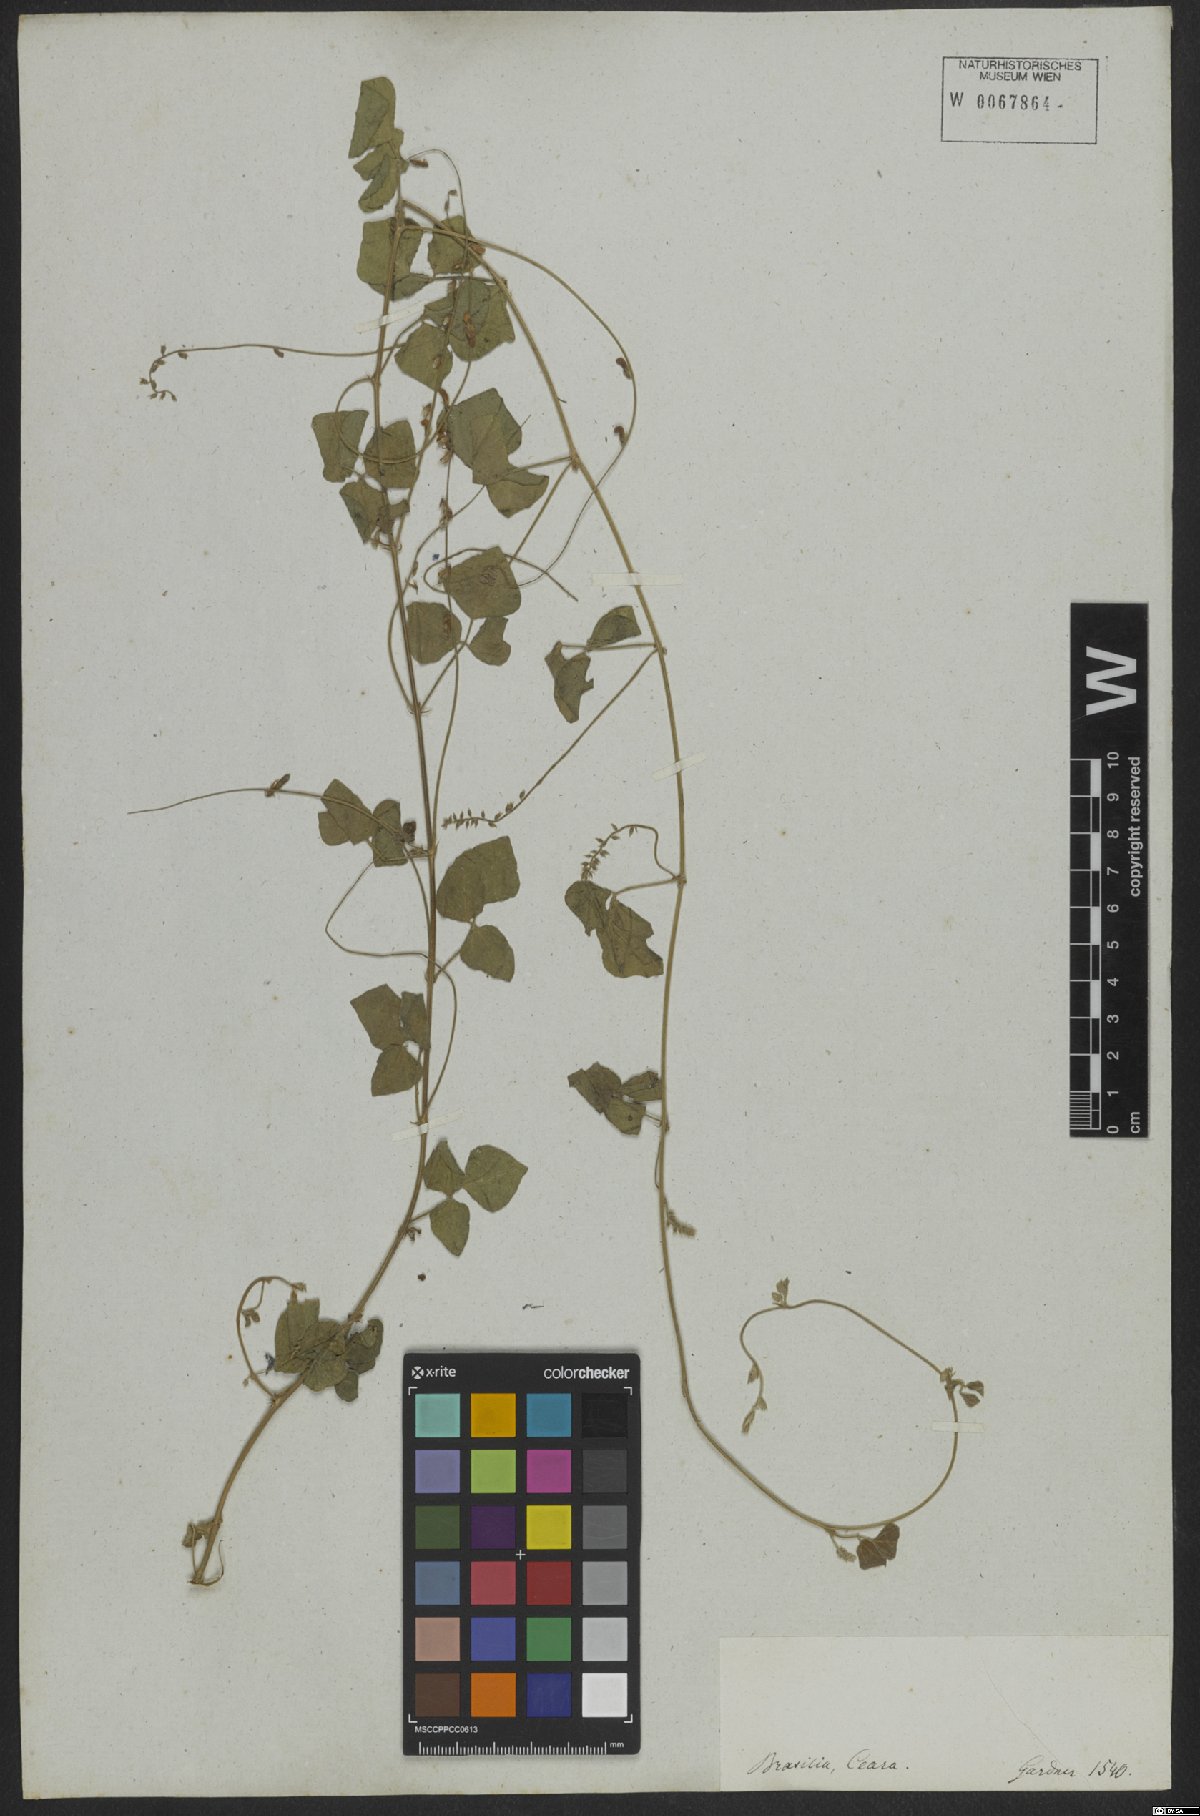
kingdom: Plantae
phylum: Tracheophyta
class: Magnoliopsida
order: Fabales
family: Fabaceae
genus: Rhynchosia
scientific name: Rhynchosia minima
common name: Least snoutbean
